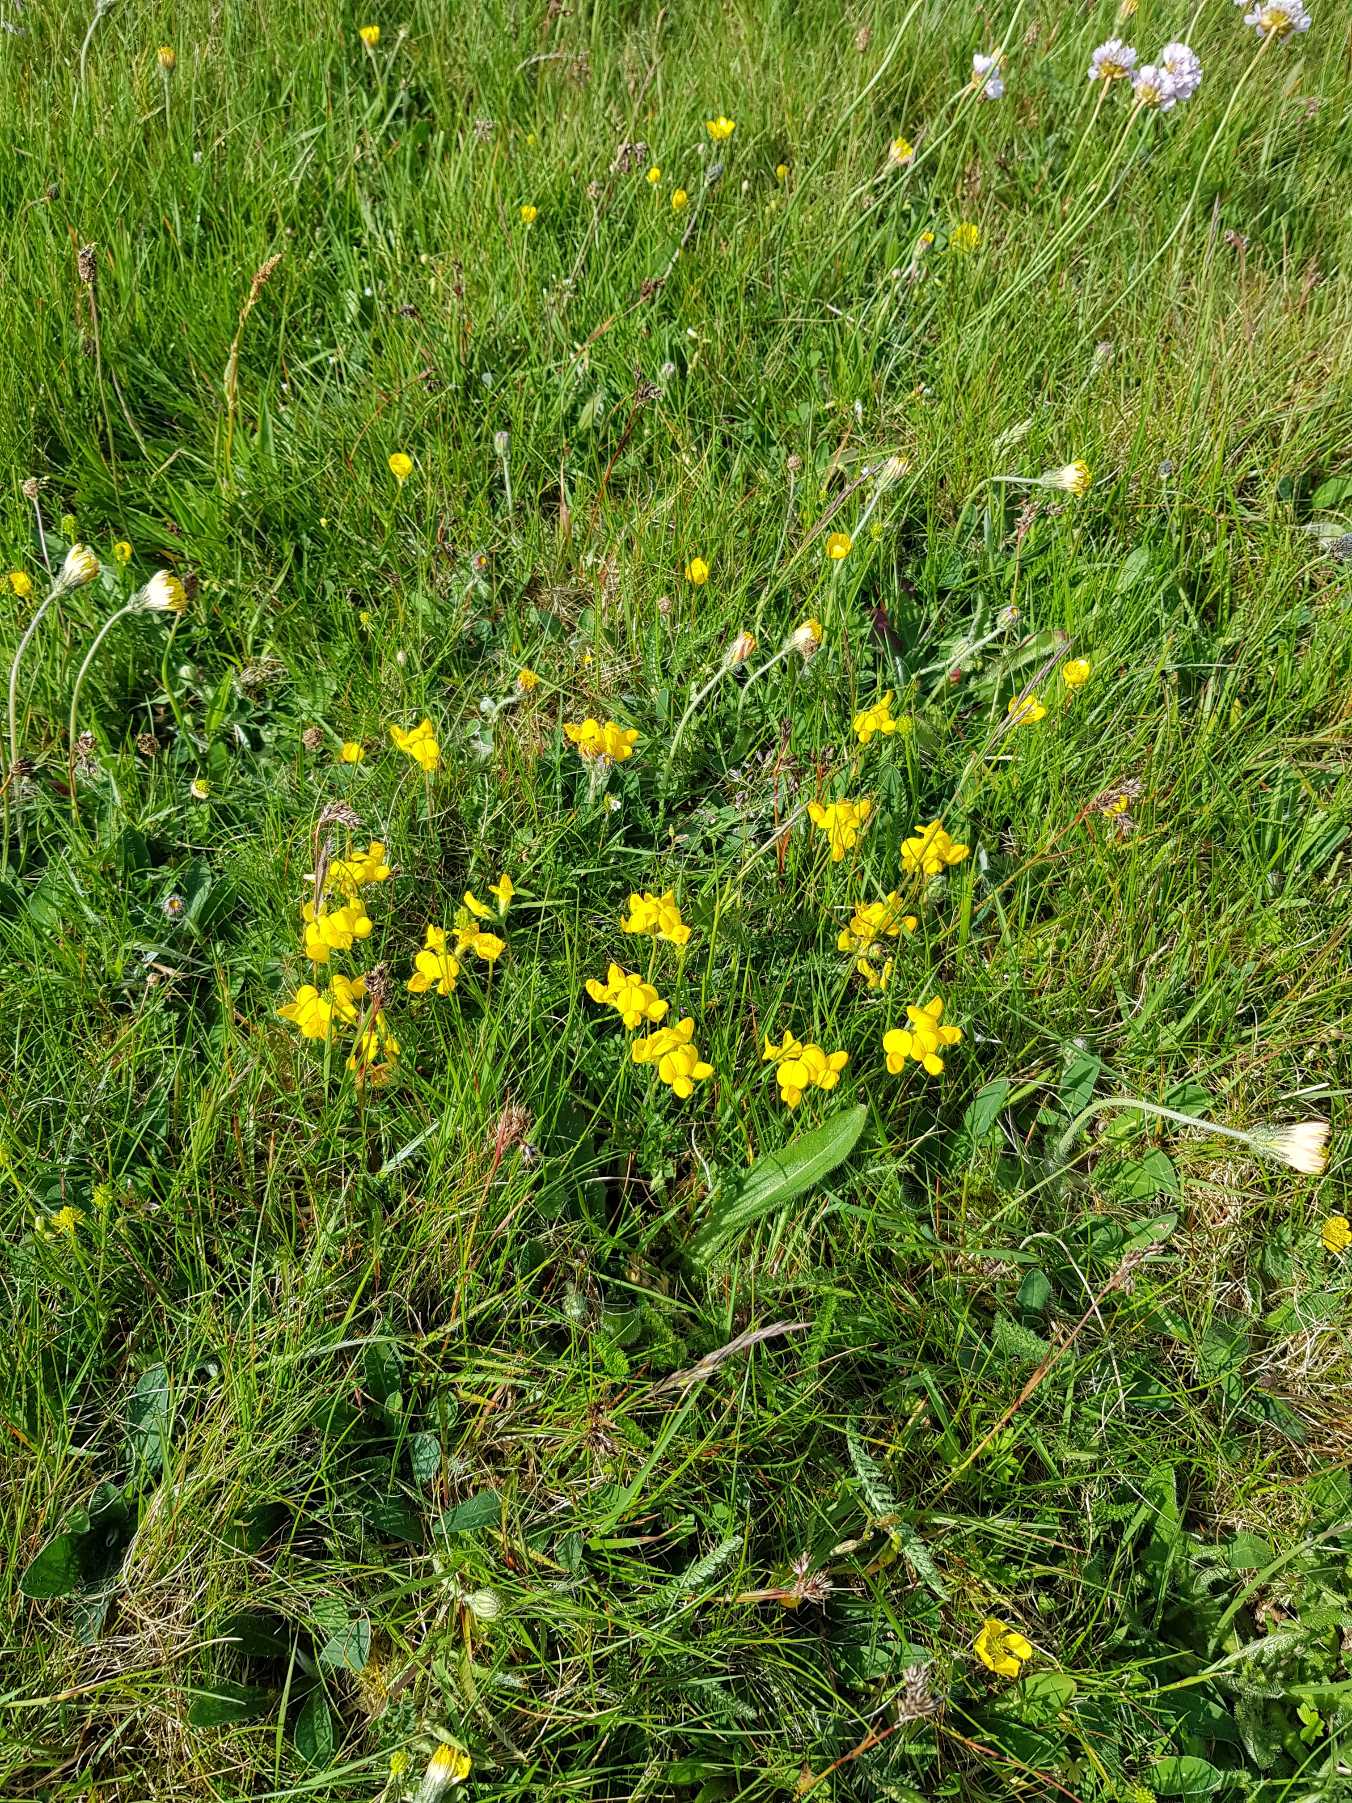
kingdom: Plantae
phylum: Tracheophyta
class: Magnoliopsida
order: Fabales
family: Fabaceae
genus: Lotus
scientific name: Lotus corniculatus
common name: Almindelig kællingetand
